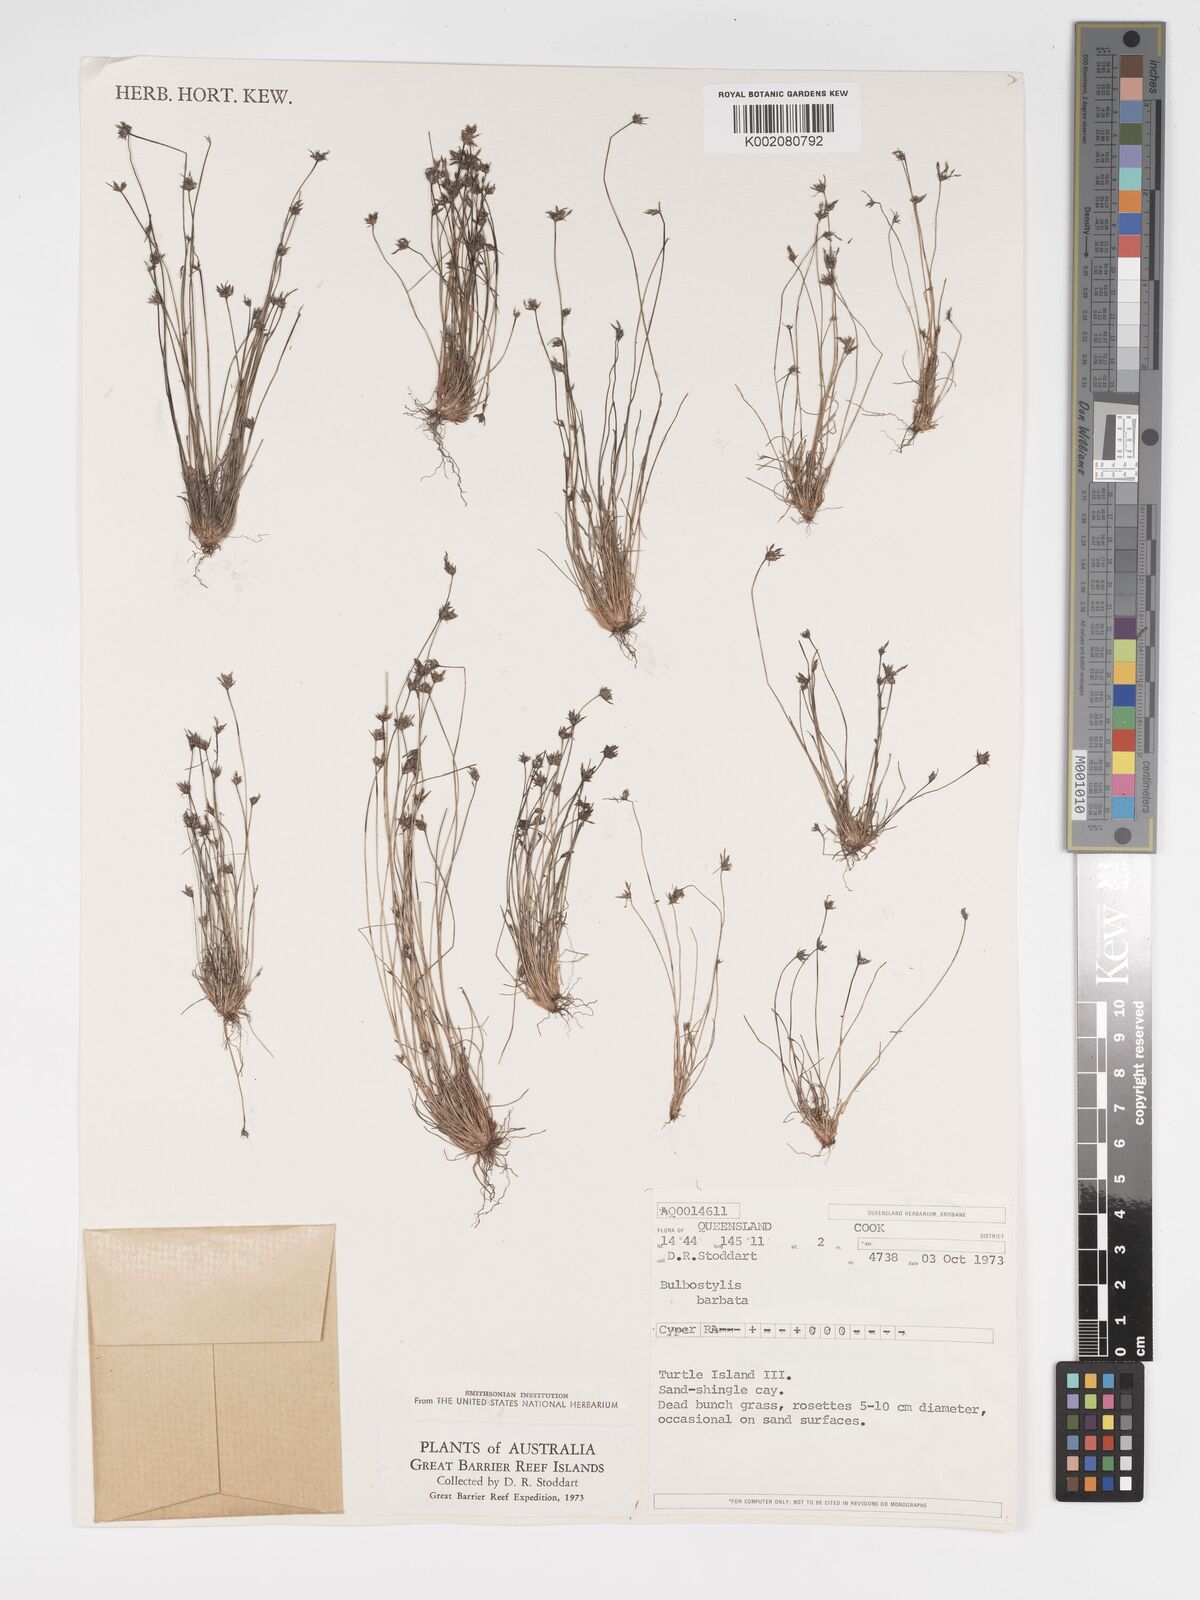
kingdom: Plantae
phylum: Tracheophyta
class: Liliopsida
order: Poales
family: Cyperaceae
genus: Bulbostylis
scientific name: Bulbostylis barbata
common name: Watergrass
